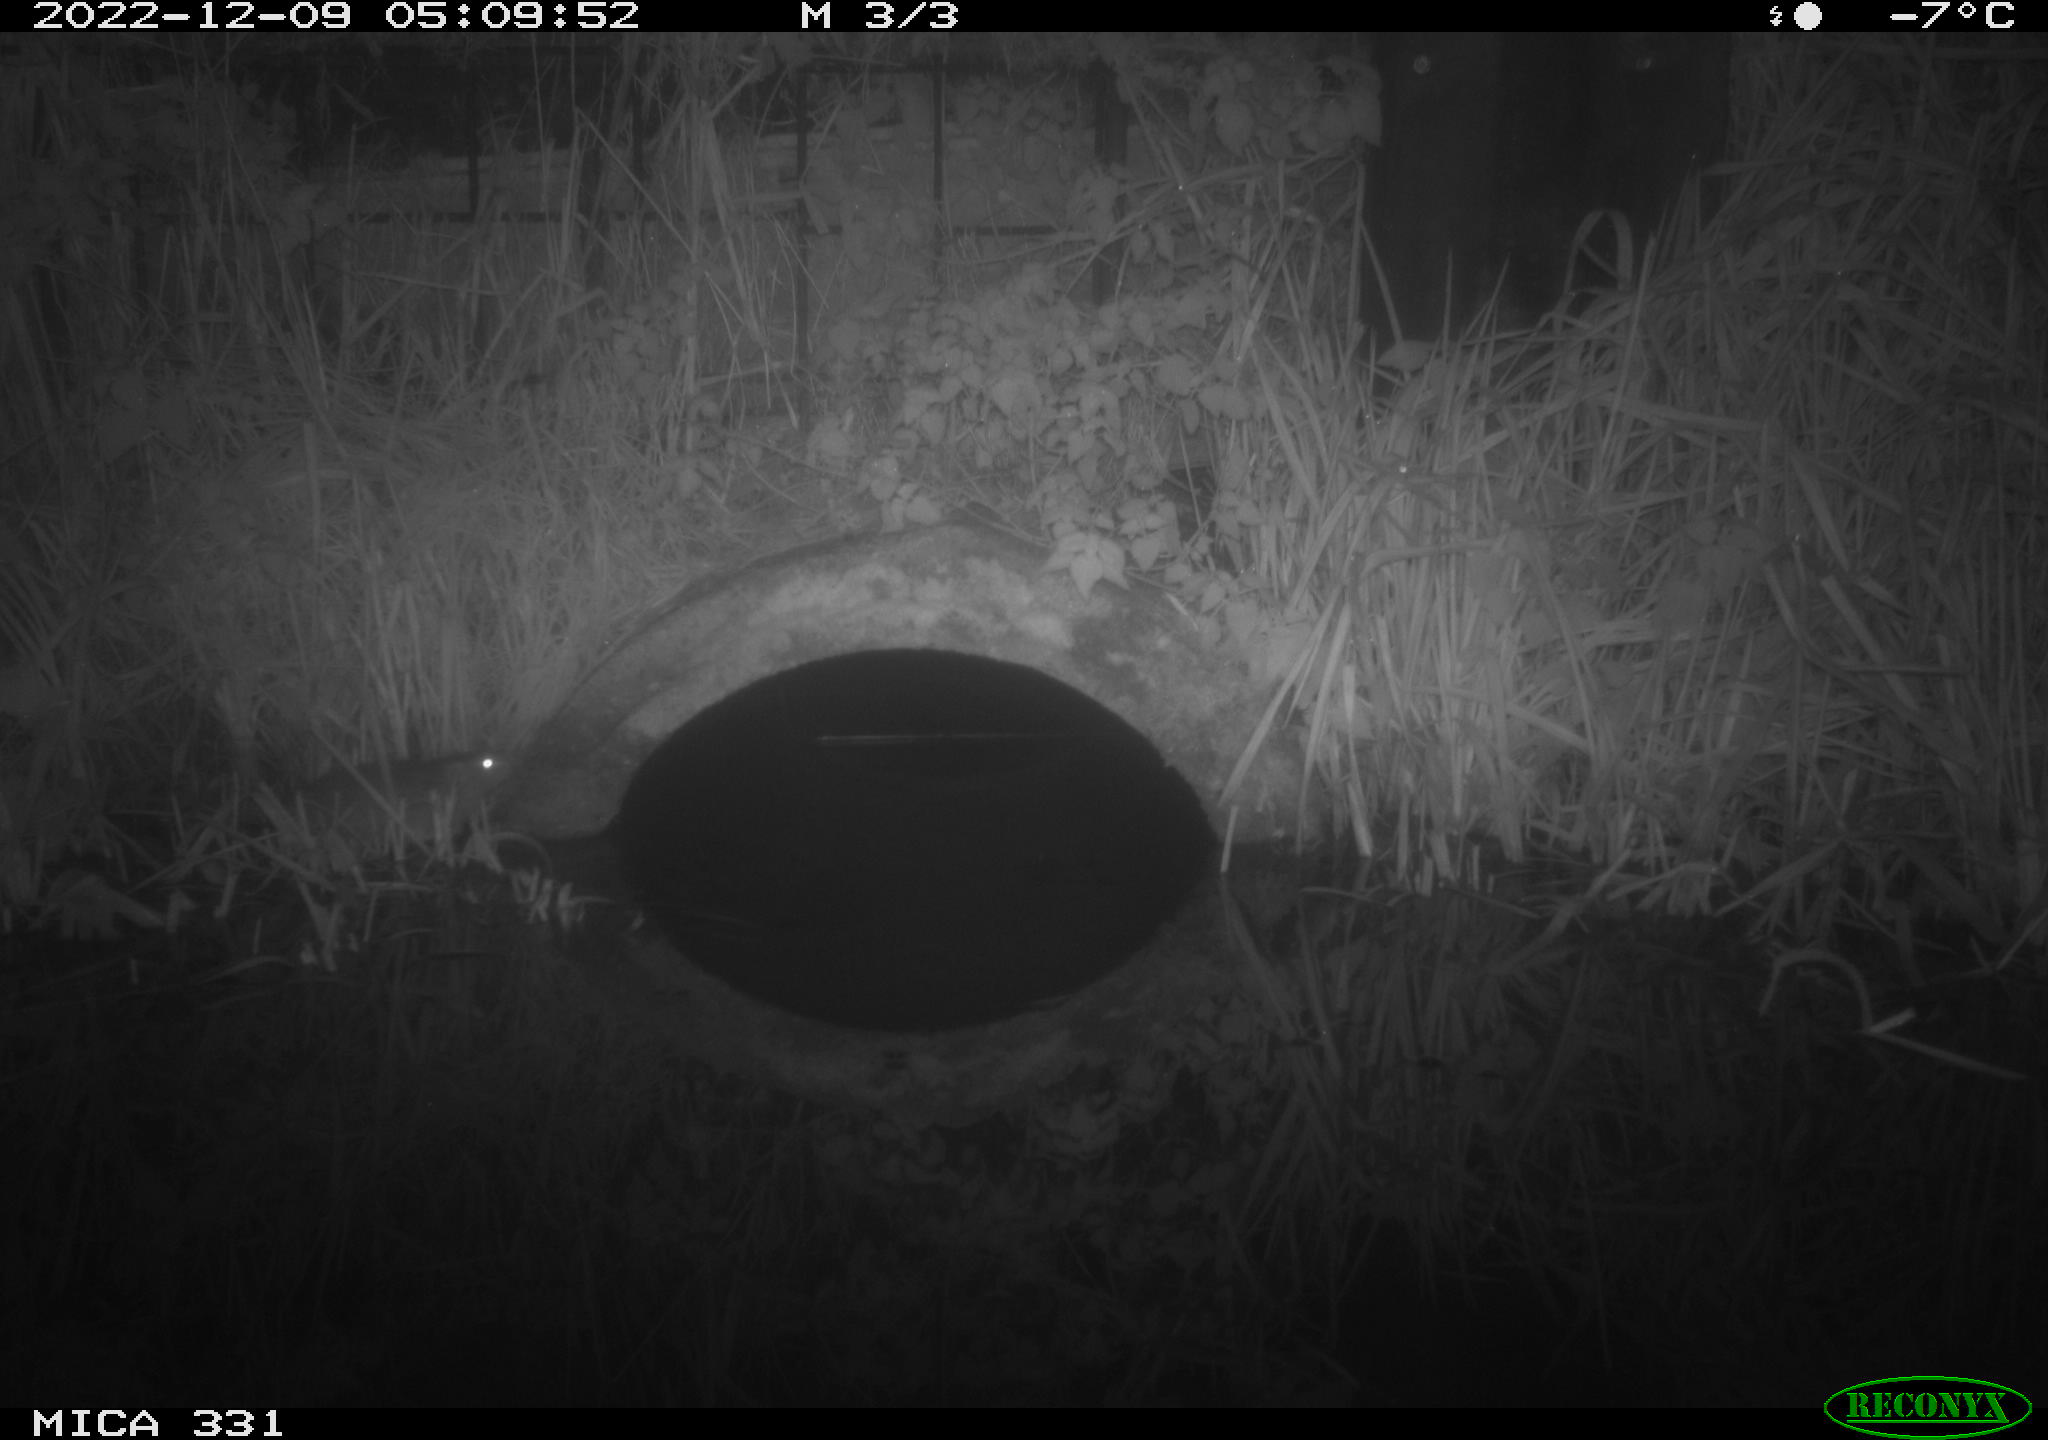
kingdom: Animalia
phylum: Chordata
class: Mammalia
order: Rodentia
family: Muridae
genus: Rattus
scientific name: Rattus norvegicus
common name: Brown rat
